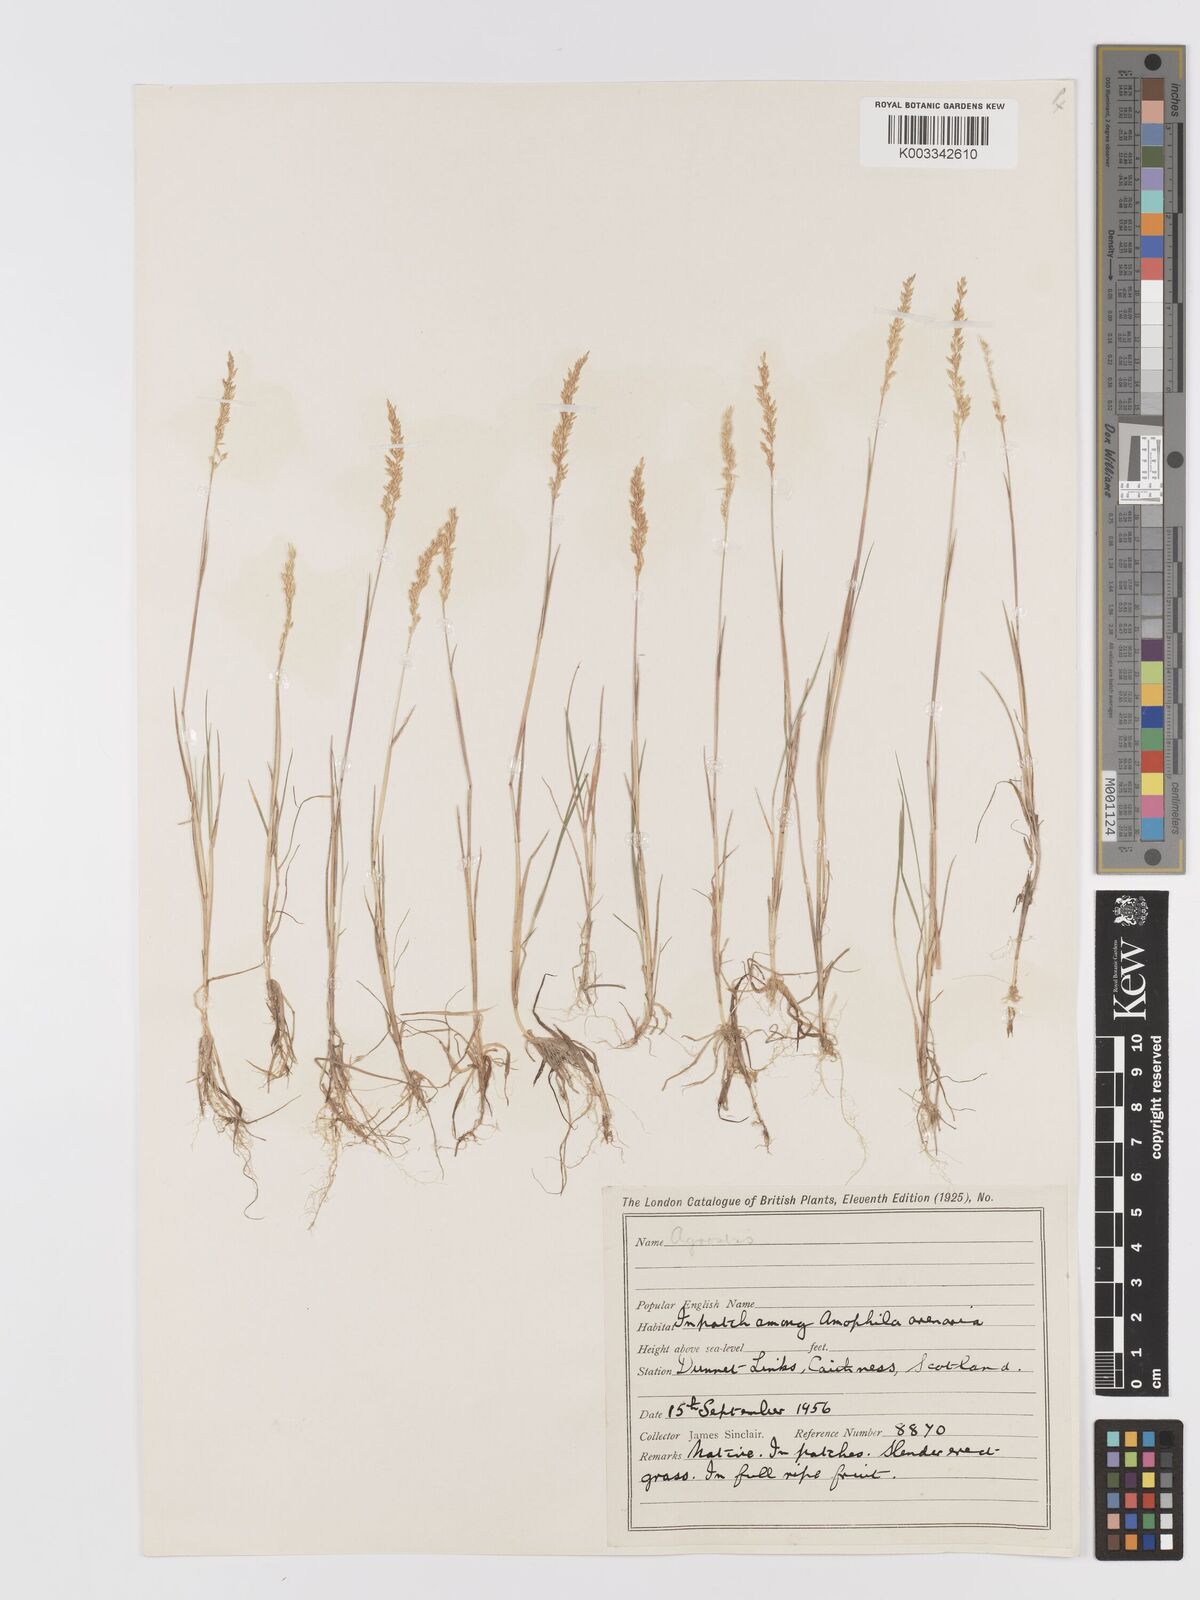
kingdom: Plantae
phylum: Tracheophyta
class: Liliopsida
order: Poales
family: Poaceae
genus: Agrostis
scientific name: Agrostis
